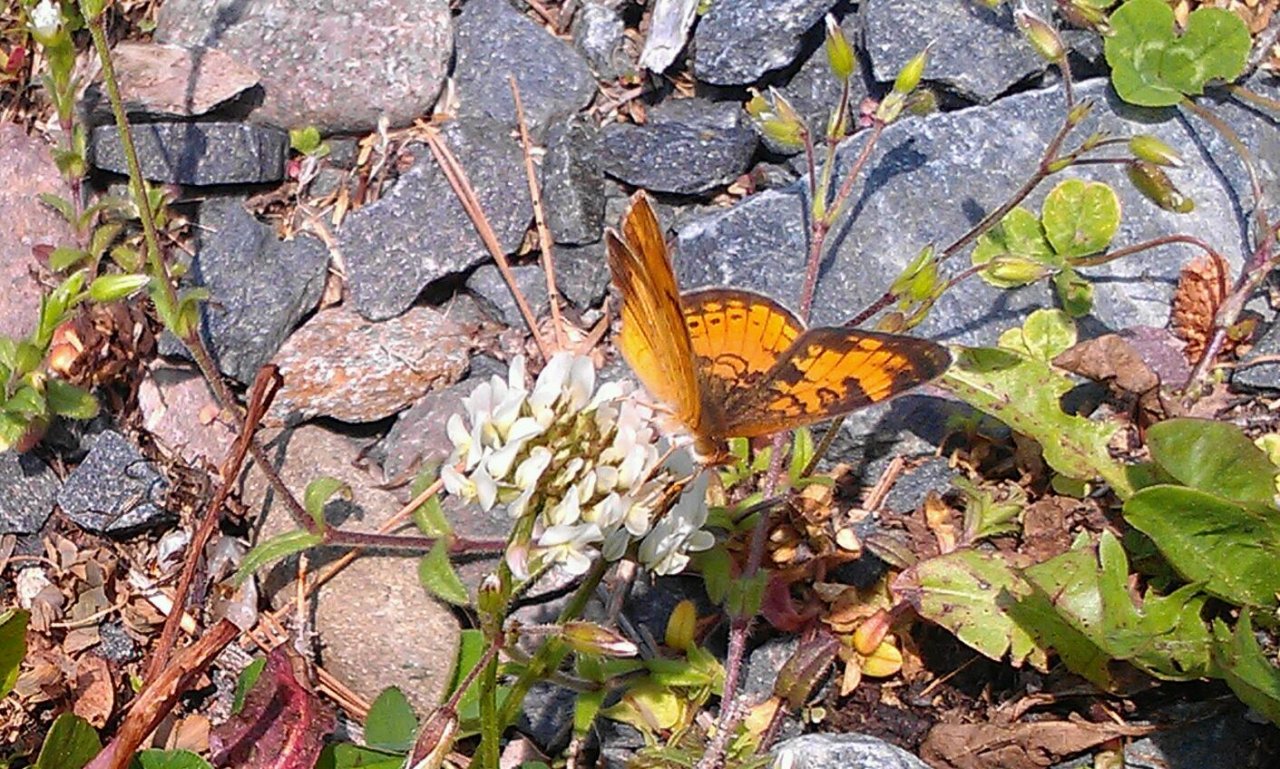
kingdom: Animalia
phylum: Arthropoda
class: Insecta
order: Lepidoptera
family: Nymphalidae
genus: Phyciodes
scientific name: Phyciodes tharos
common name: Northern Crescent
